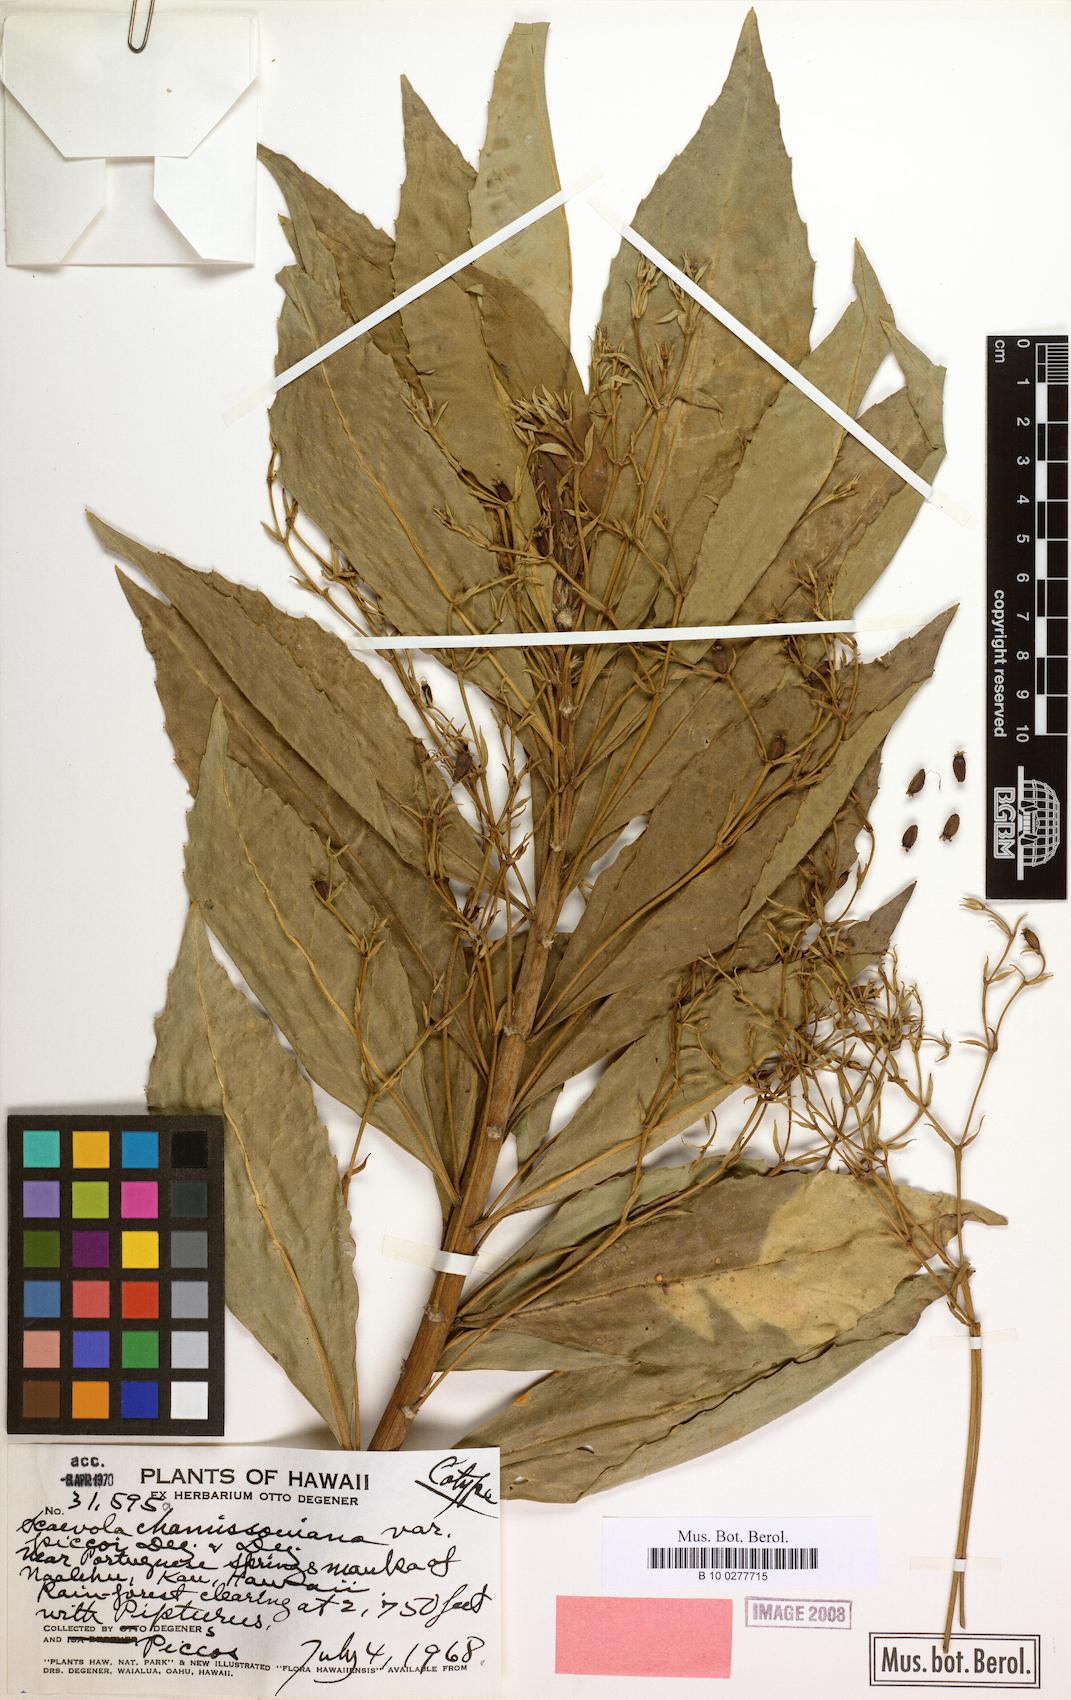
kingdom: Plantae
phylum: Tracheophyta
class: Magnoliopsida
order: Asterales
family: Goodeniaceae
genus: Scaevola
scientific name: Scaevola chamissoniana
